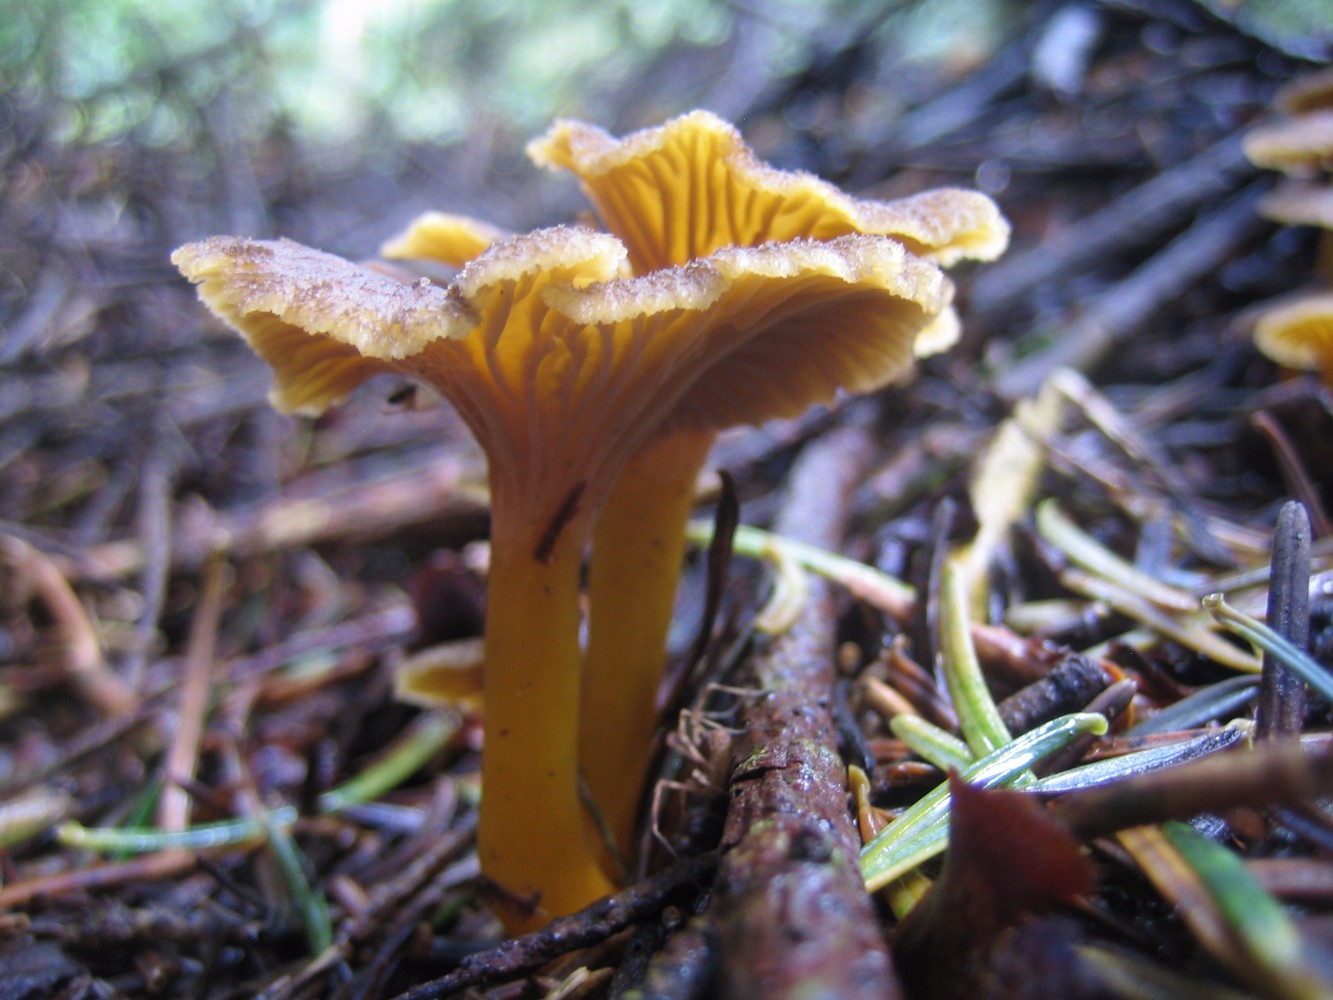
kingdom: Fungi
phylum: Basidiomycota
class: Agaricomycetes
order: Cantharellales
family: Hydnaceae
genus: Craterellus
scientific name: Craterellus tubaeformis
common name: tragt-kantarel
